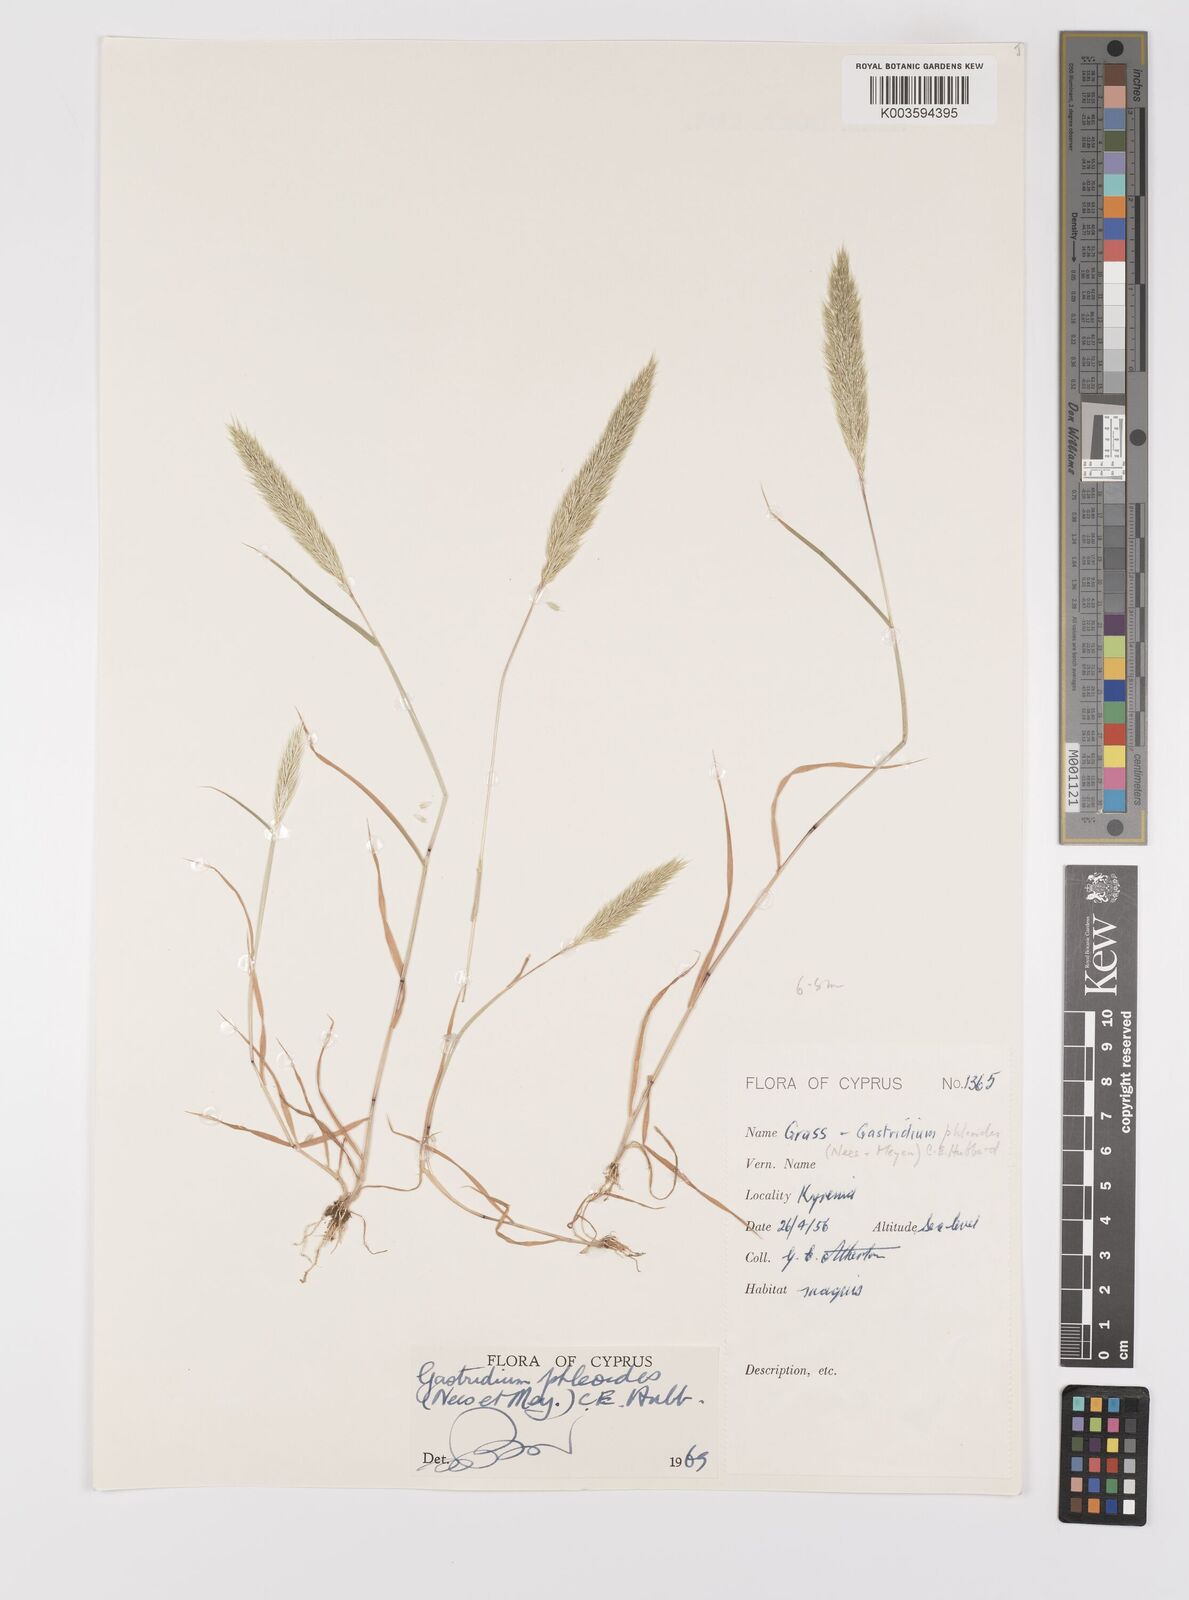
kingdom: Plantae
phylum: Tracheophyta
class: Liliopsida
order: Poales
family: Poaceae
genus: Gastridium
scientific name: Gastridium phleoides
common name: Nit grass
